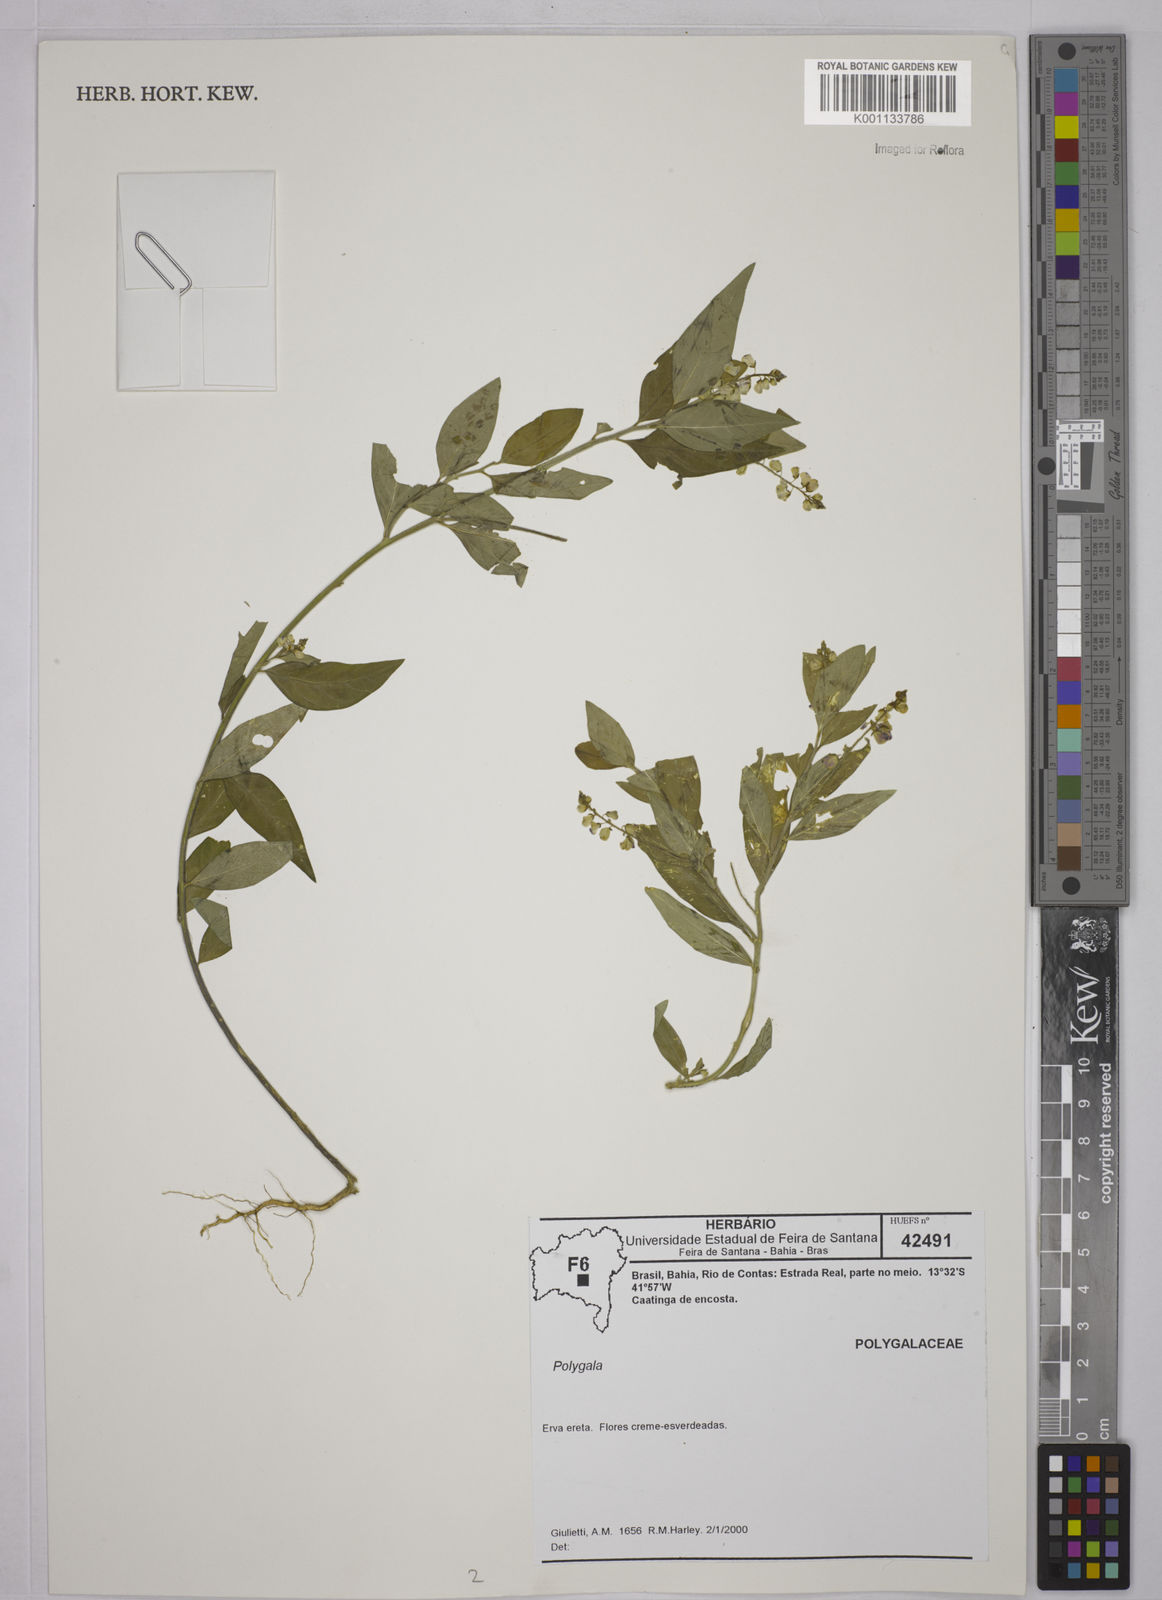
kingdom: Plantae
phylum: Tracheophyta
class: Magnoliopsida
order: Fabales
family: Polygalaceae
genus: Polygala
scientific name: Polygala
